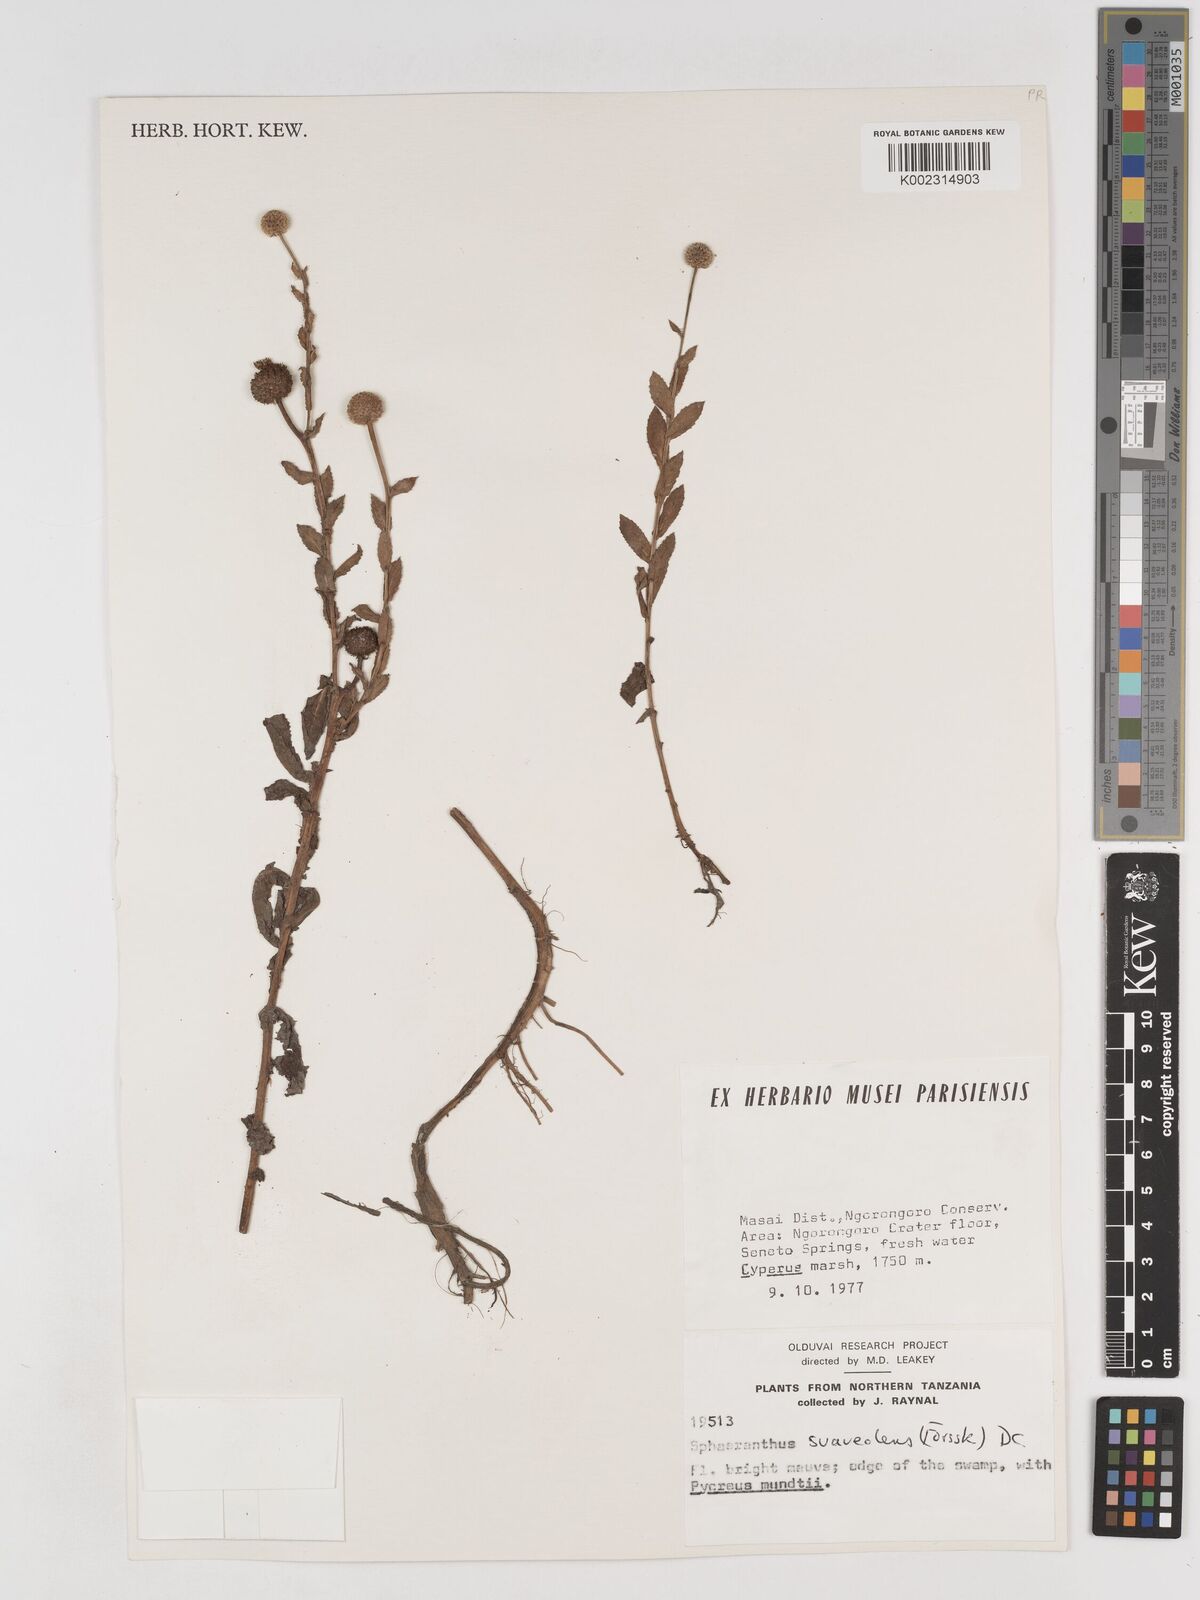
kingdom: Plantae
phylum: Tracheophyta
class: Magnoliopsida
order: Asterales
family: Asteraceae
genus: Sphaeranthus
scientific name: Sphaeranthus suaveolens
